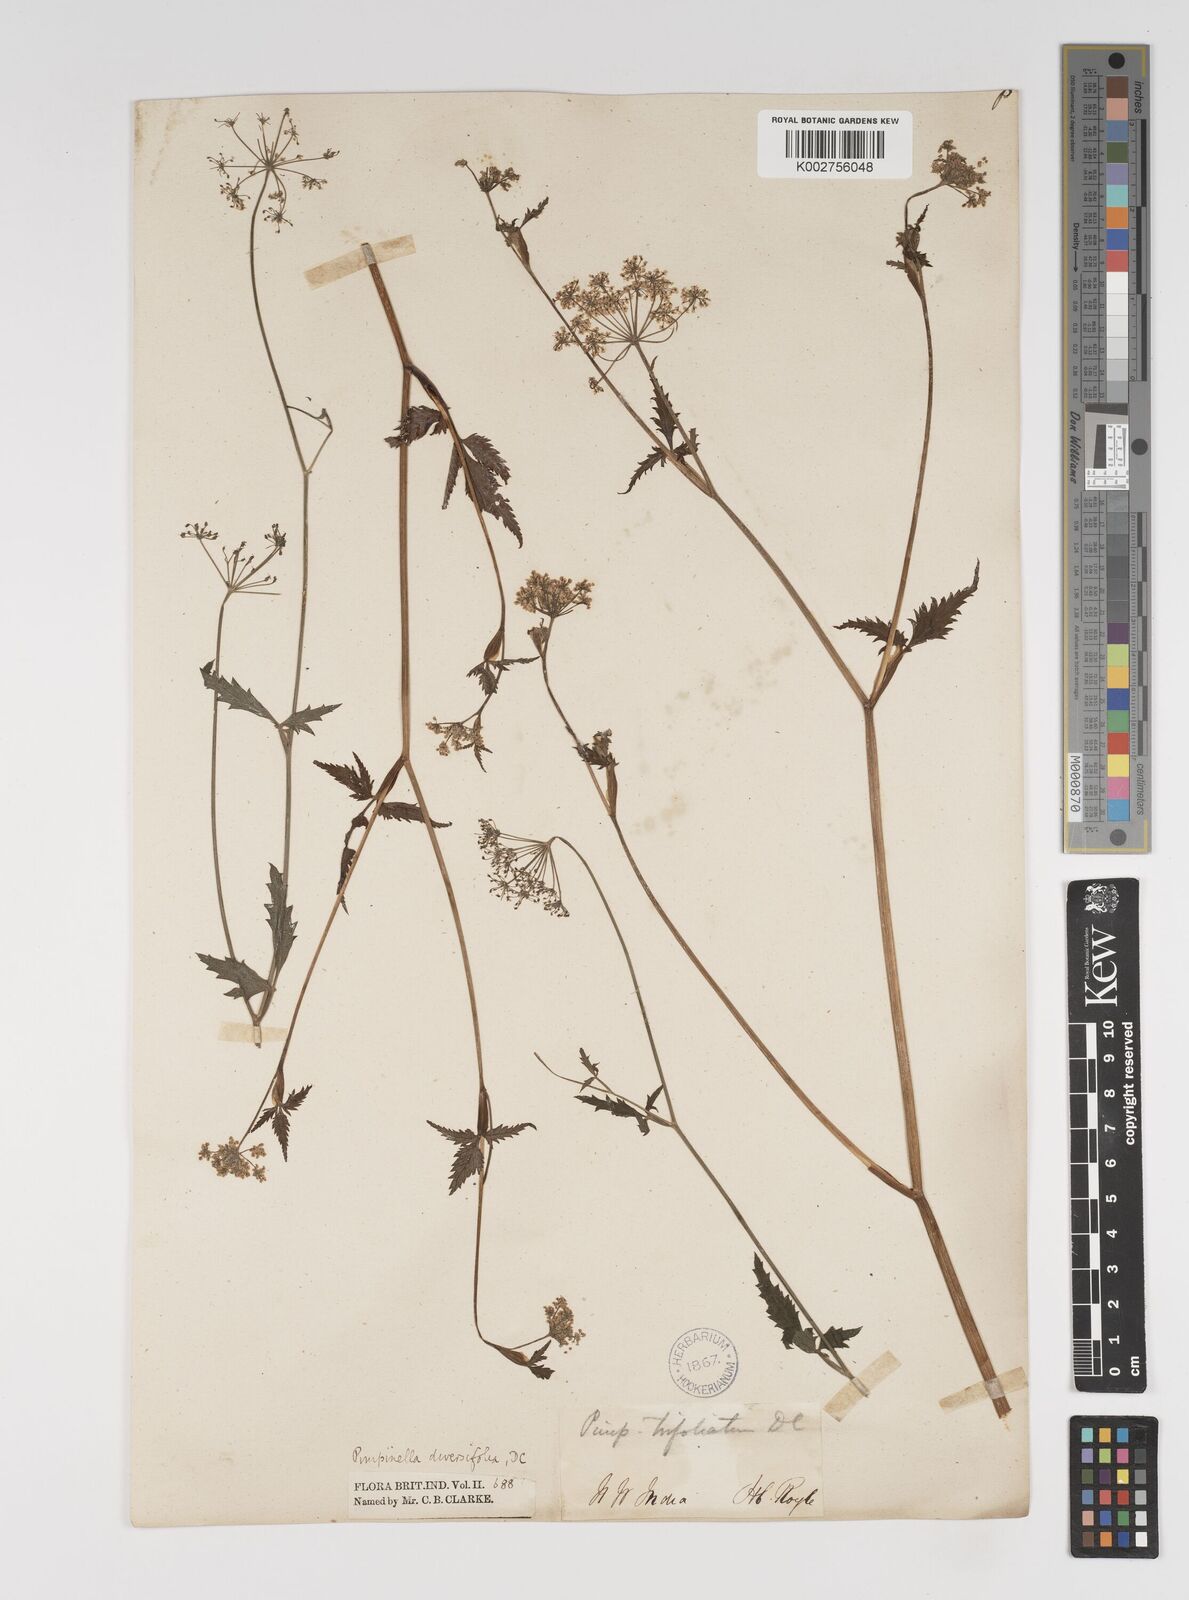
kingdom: Plantae
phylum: Tracheophyta
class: Magnoliopsida
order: Apiales
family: Apiaceae
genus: Pimpinella
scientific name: Pimpinella diversifolia
